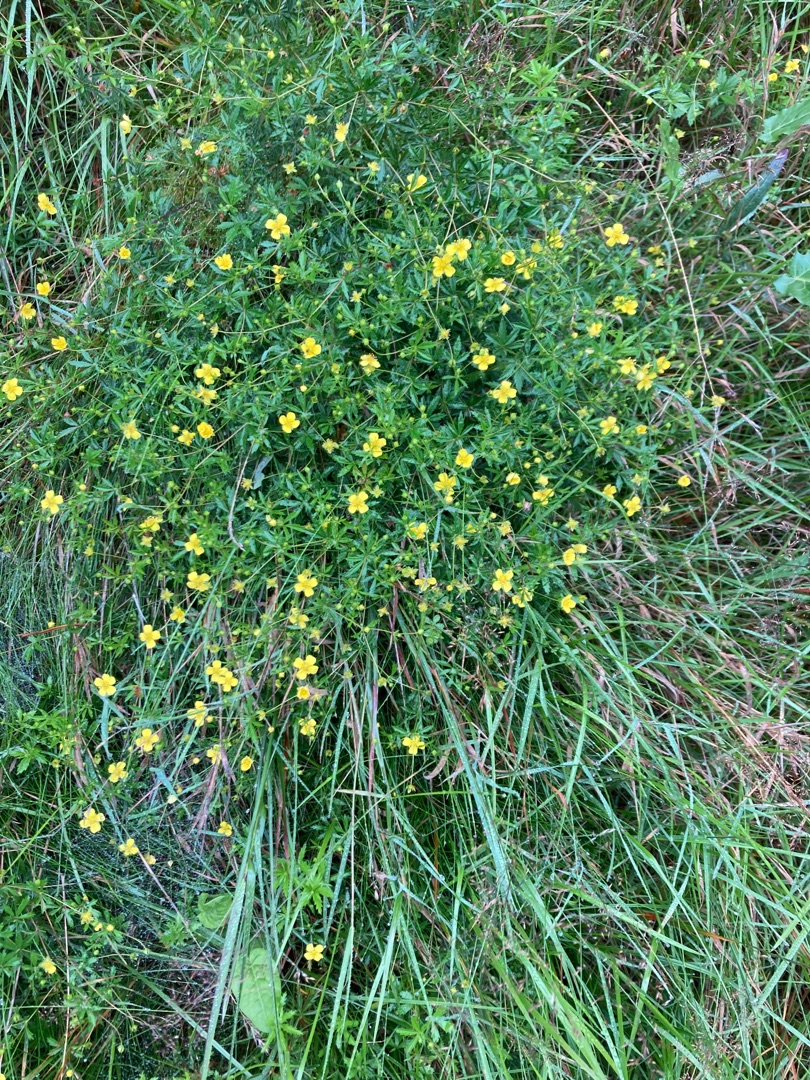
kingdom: Plantae
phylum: Tracheophyta
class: Magnoliopsida
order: Rosales
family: Rosaceae
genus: Potentilla
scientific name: Potentilla erecta
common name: Tormentil
